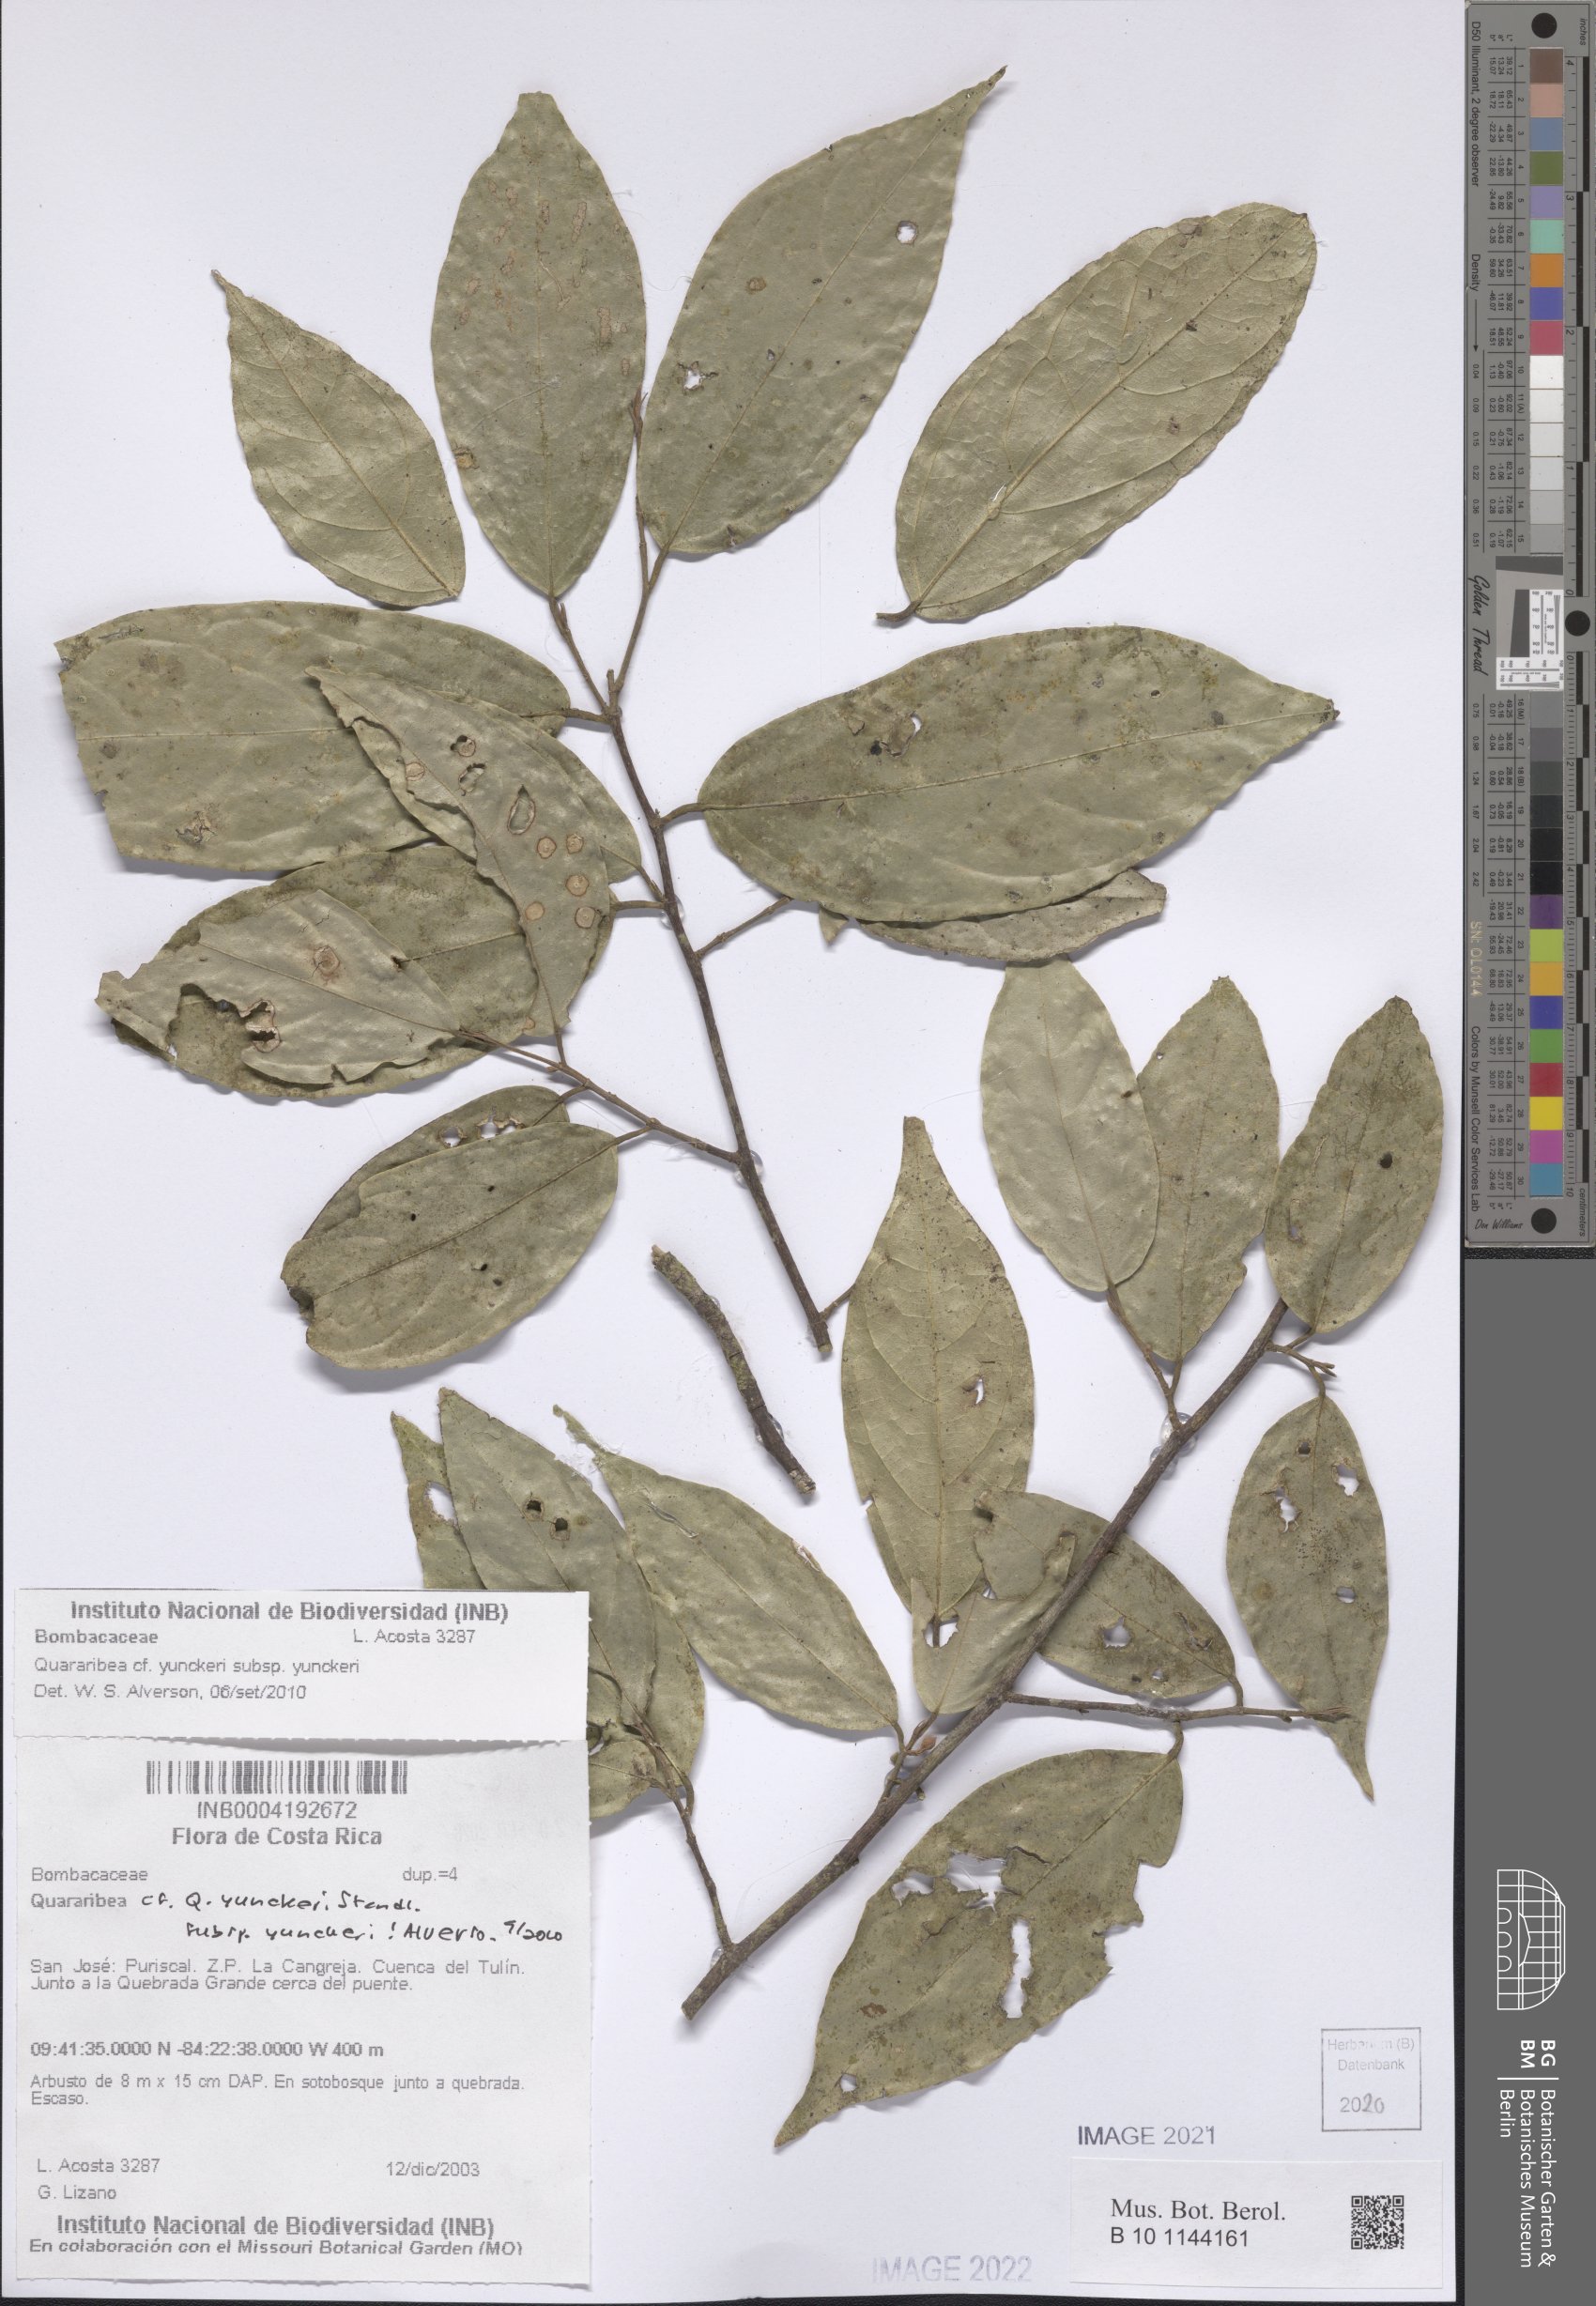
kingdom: Plantae
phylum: Tracheophyta
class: Magnoliopsida
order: Malvales
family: Malvaceae
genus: Quararibea
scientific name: Quararibea yunckeri
